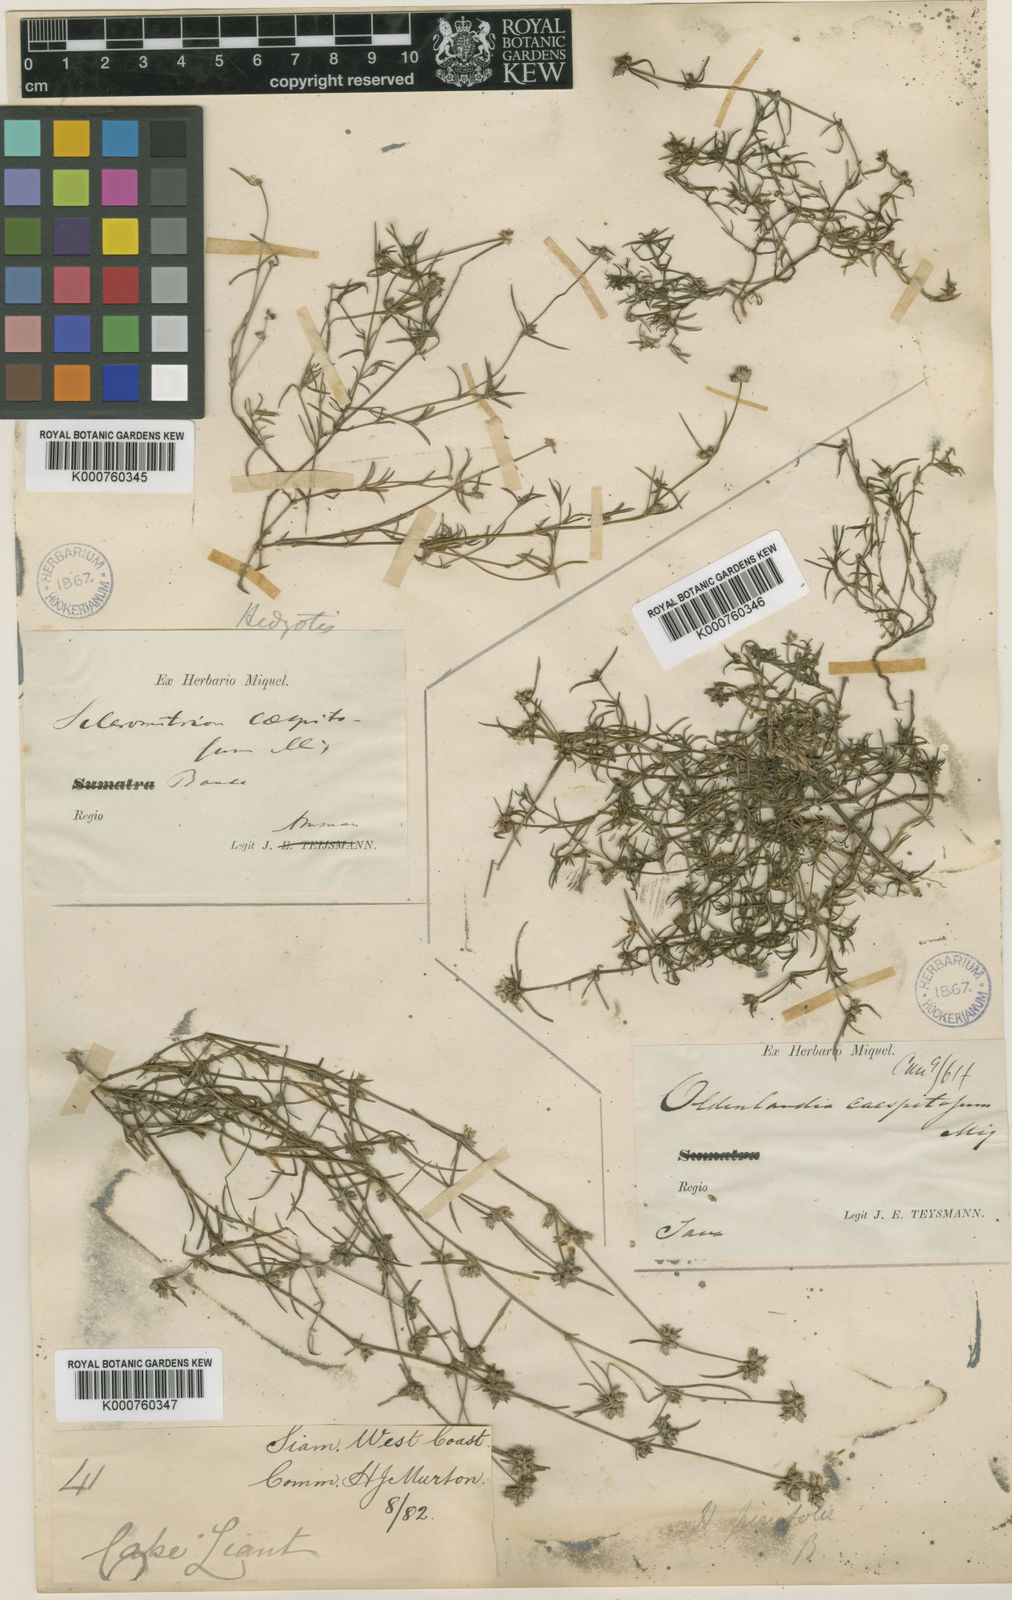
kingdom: Plantae
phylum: Tracheophyta
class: Magnoliopsida
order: Gentianales
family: Rubiaceae
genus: Scleromitrion
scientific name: Scleromitrion pinifolium
